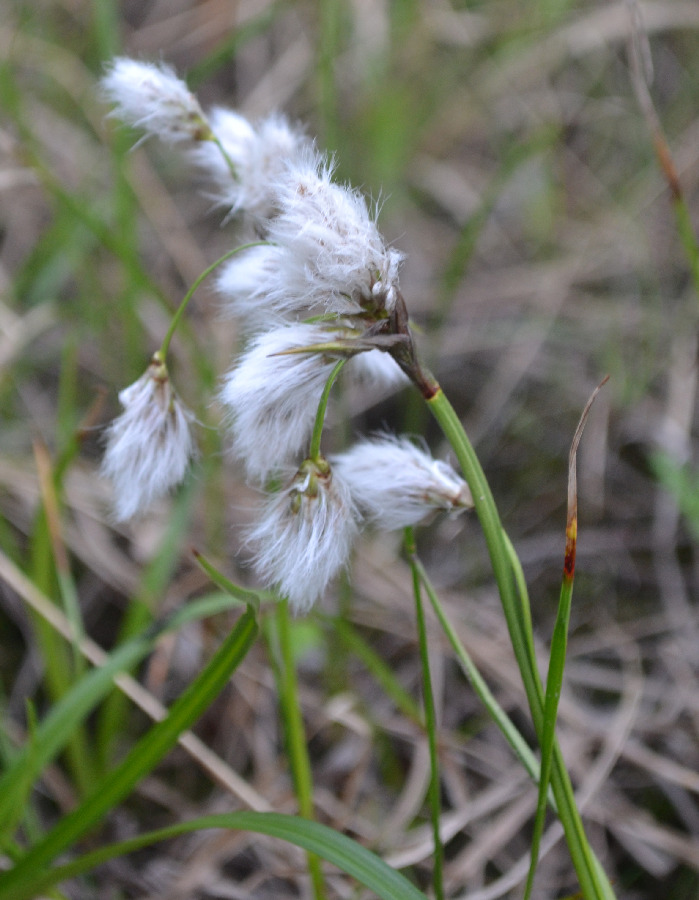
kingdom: Plantae
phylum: Tracheophyta
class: Liliopsida
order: Poales
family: Cyperaceae
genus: Eriophorum
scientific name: Eriophorum angustifolium
